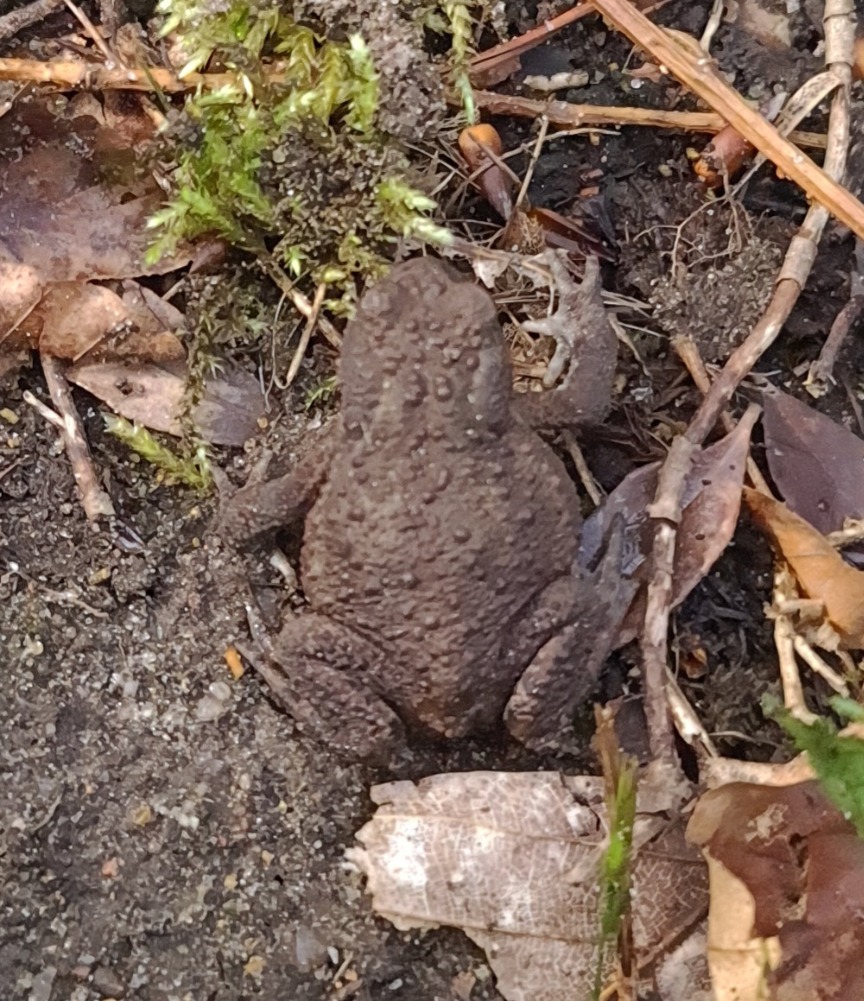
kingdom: Animalia
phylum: Chordata
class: Amphibia
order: Anura
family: Bufonidae
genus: Bufo
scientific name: Bufo bufo
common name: Skrubtudse
